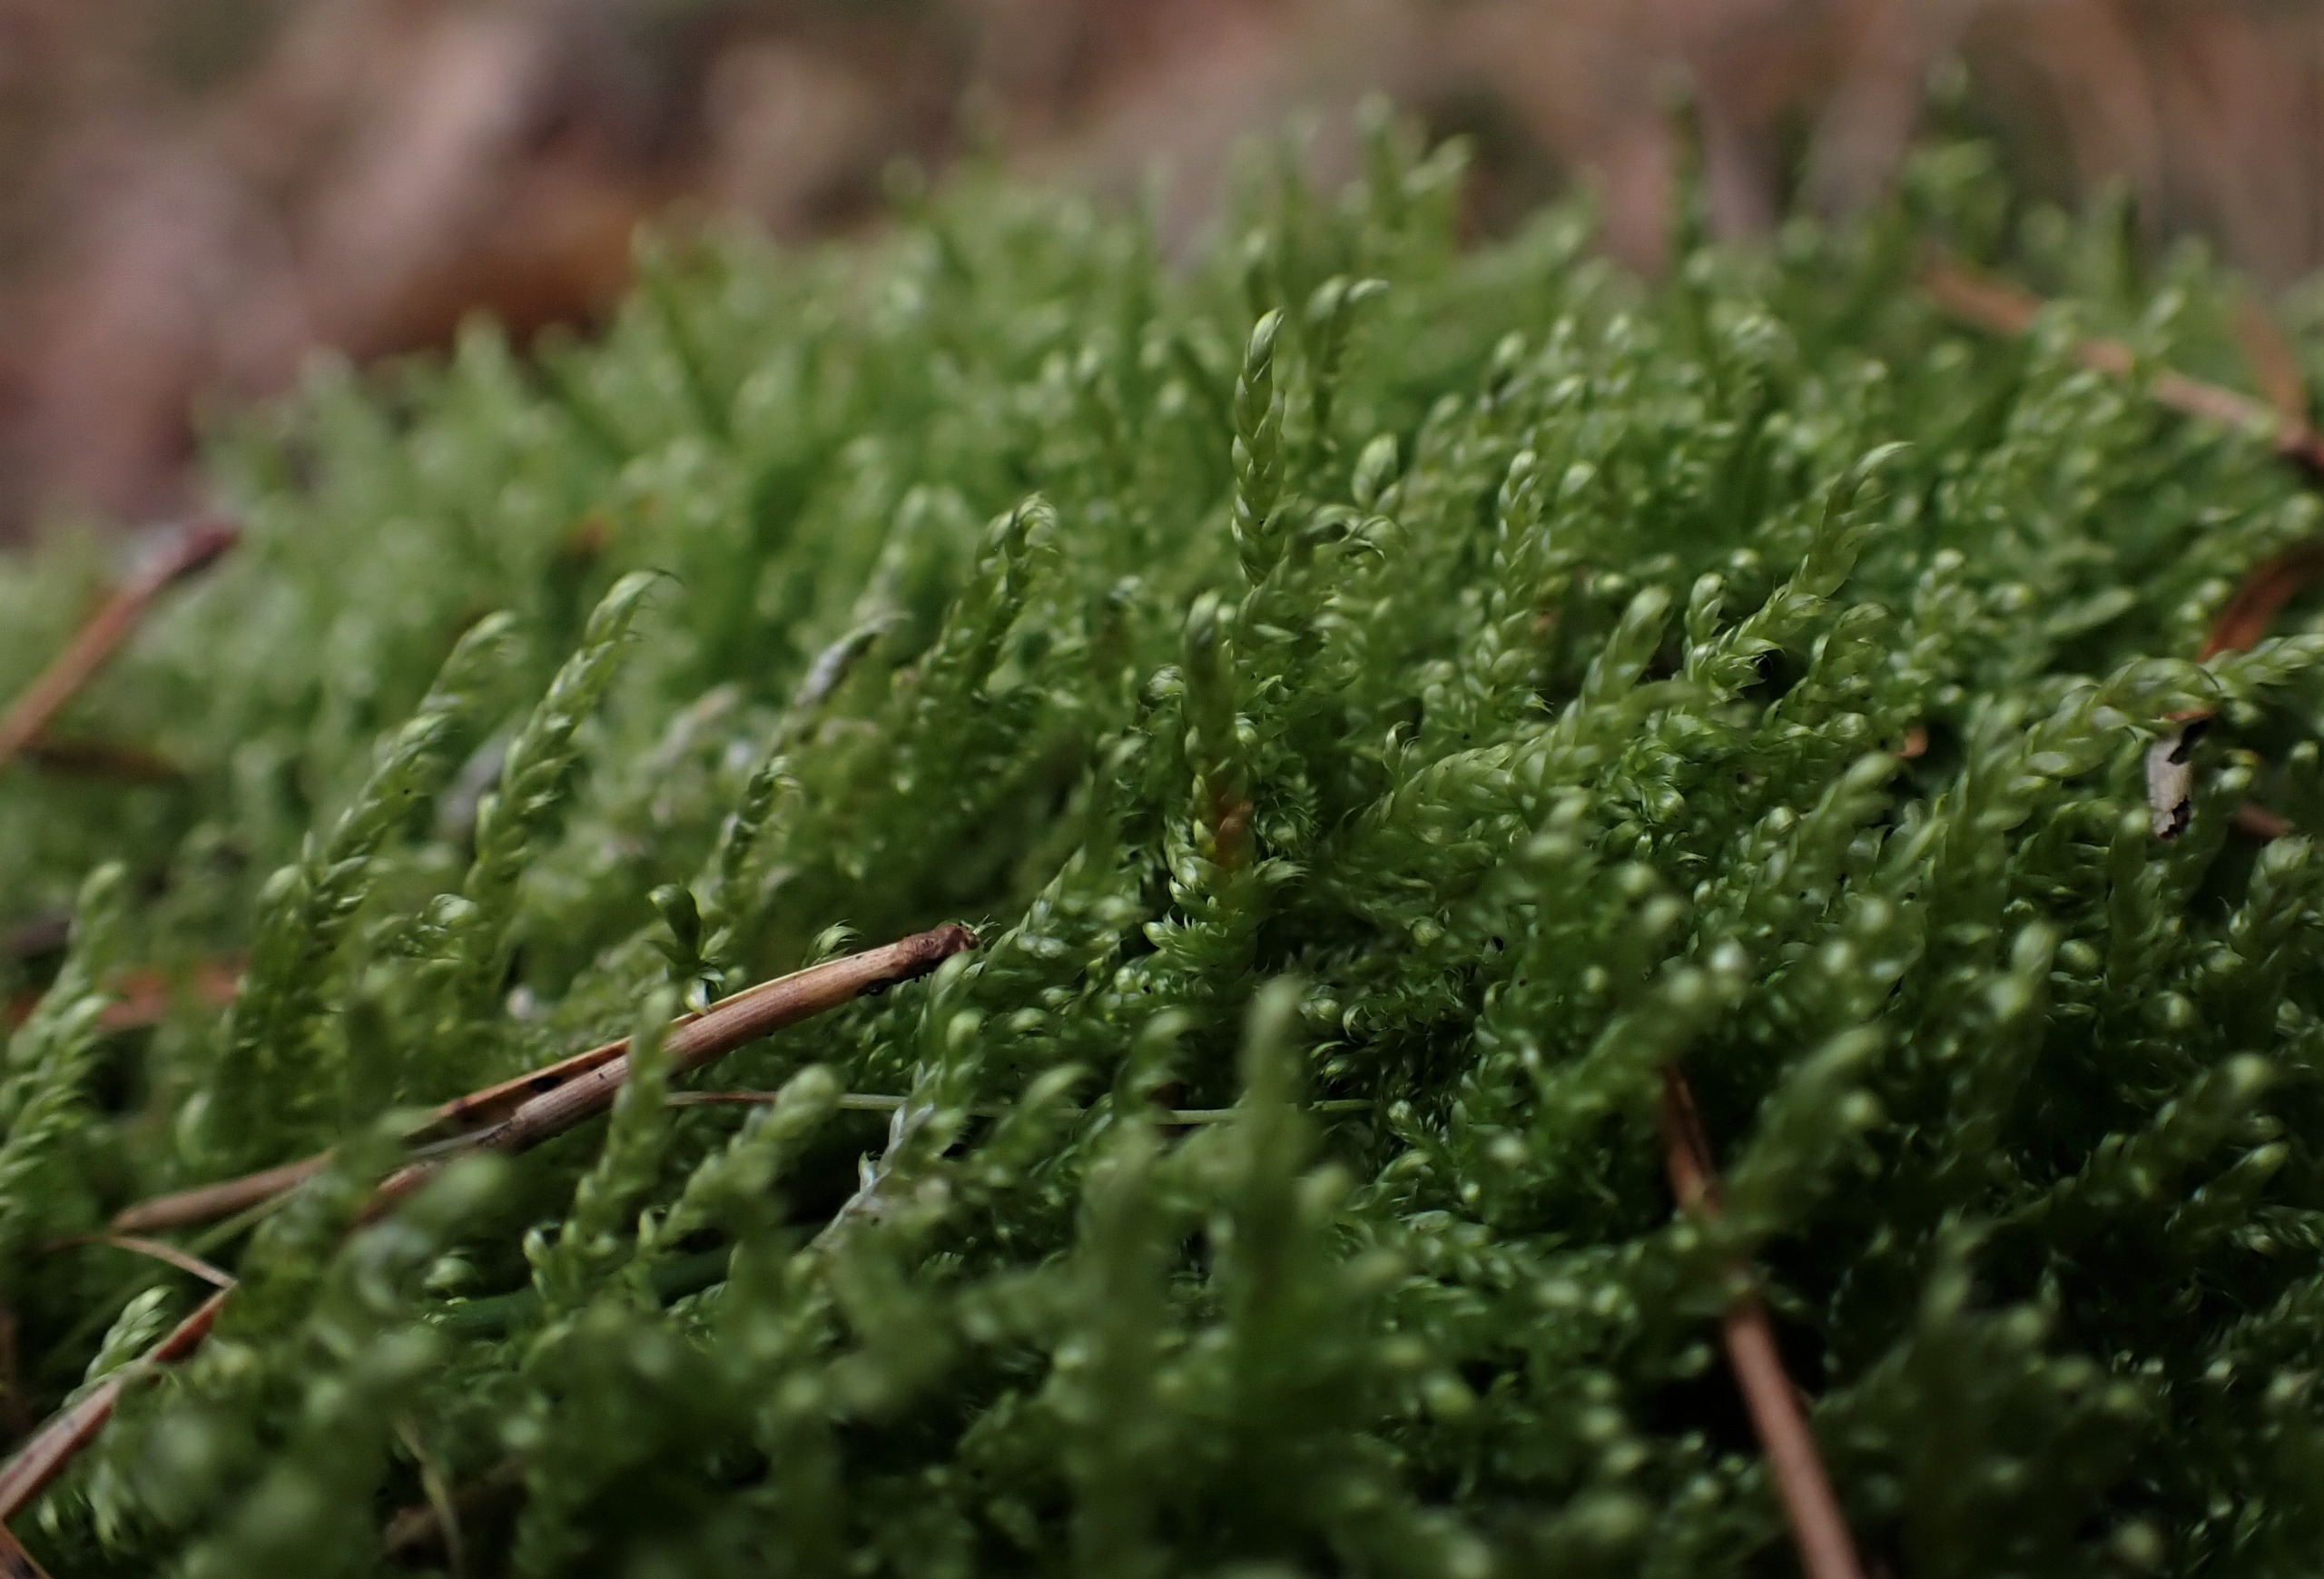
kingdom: Plantae
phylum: Bryophyta
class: Bryopsida
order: Hypnales
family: Hypnaceae
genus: Hypnum
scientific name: Hypnum jutlandicum
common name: Hede-cypresmos
